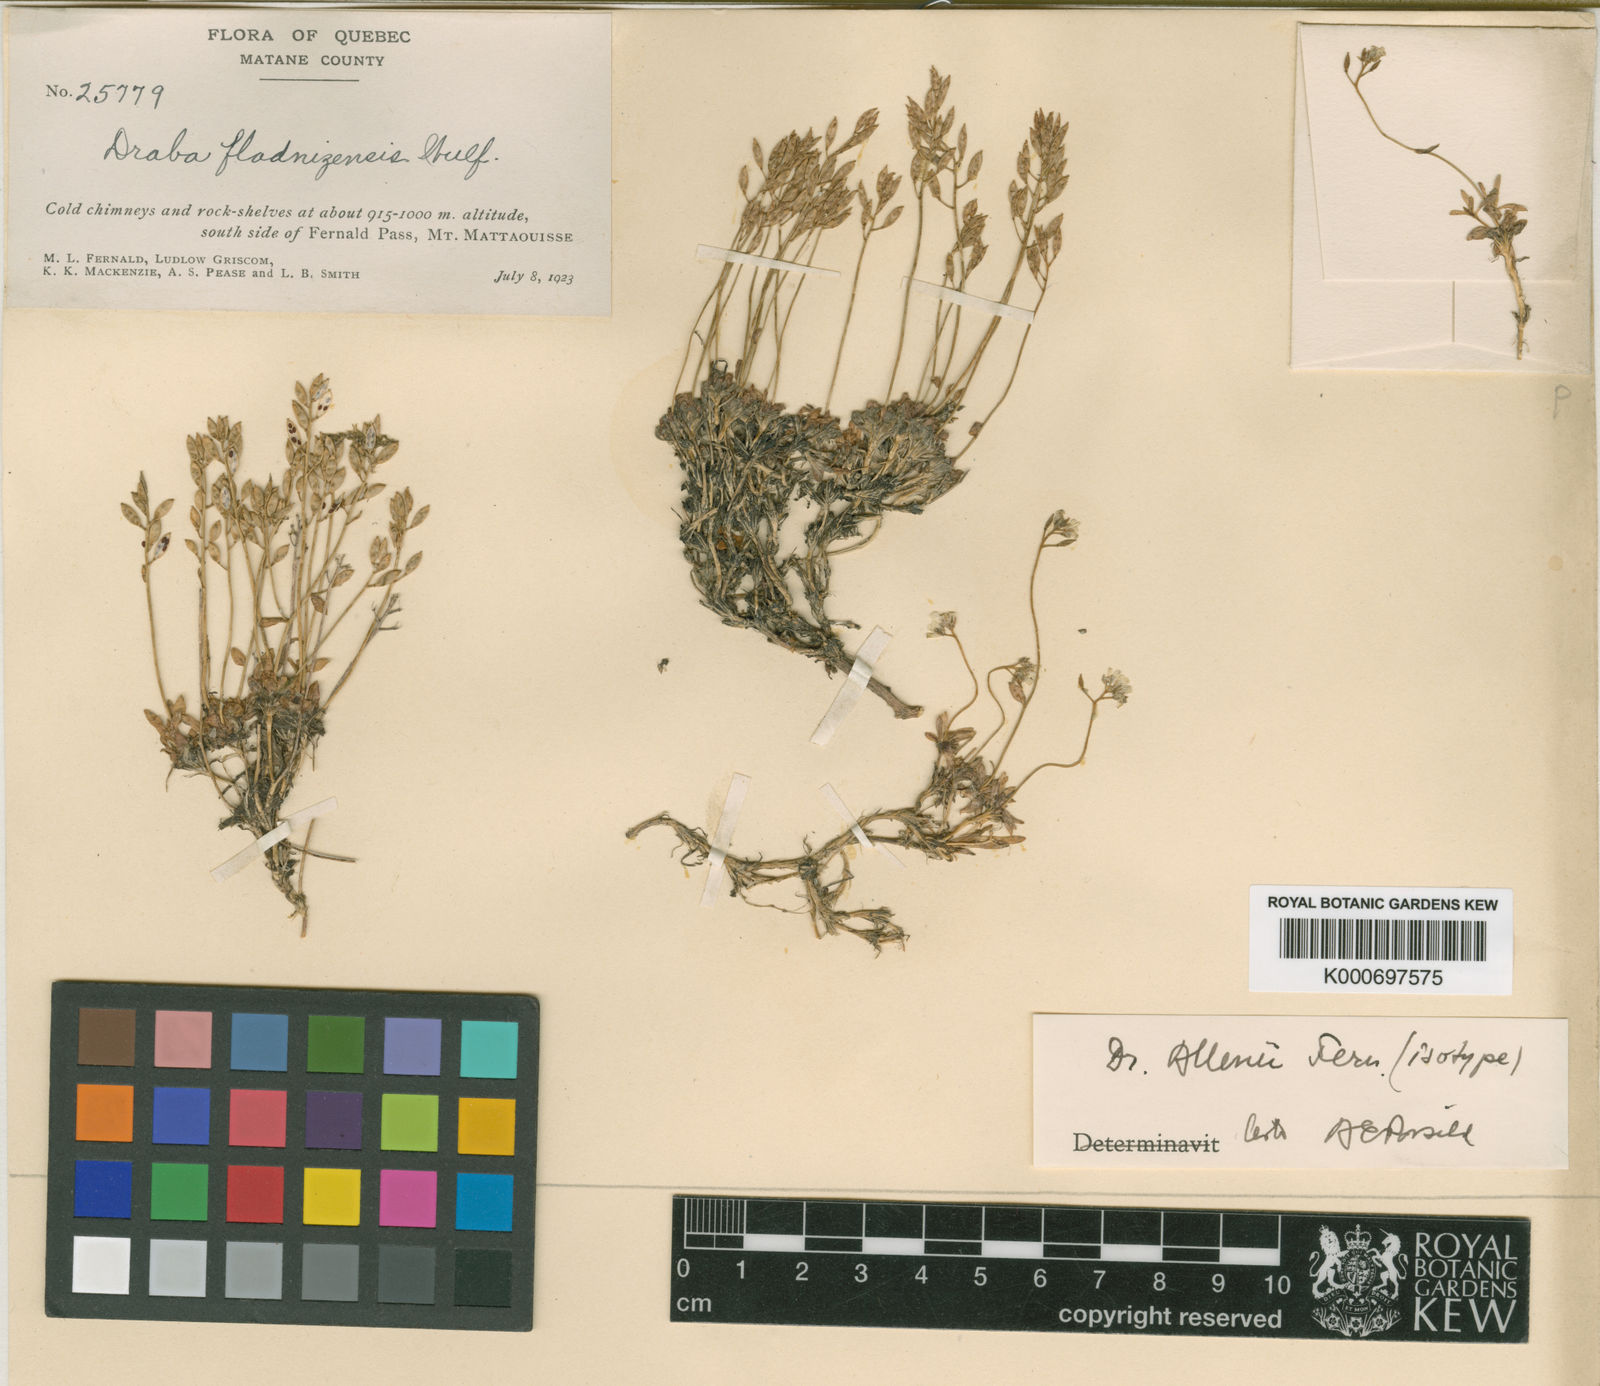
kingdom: Plantae
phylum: Tracheophyta
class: Magnoliopsida
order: Brassicales
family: Brassicaceae
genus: Draba
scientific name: Draba lactea
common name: Milky draba
